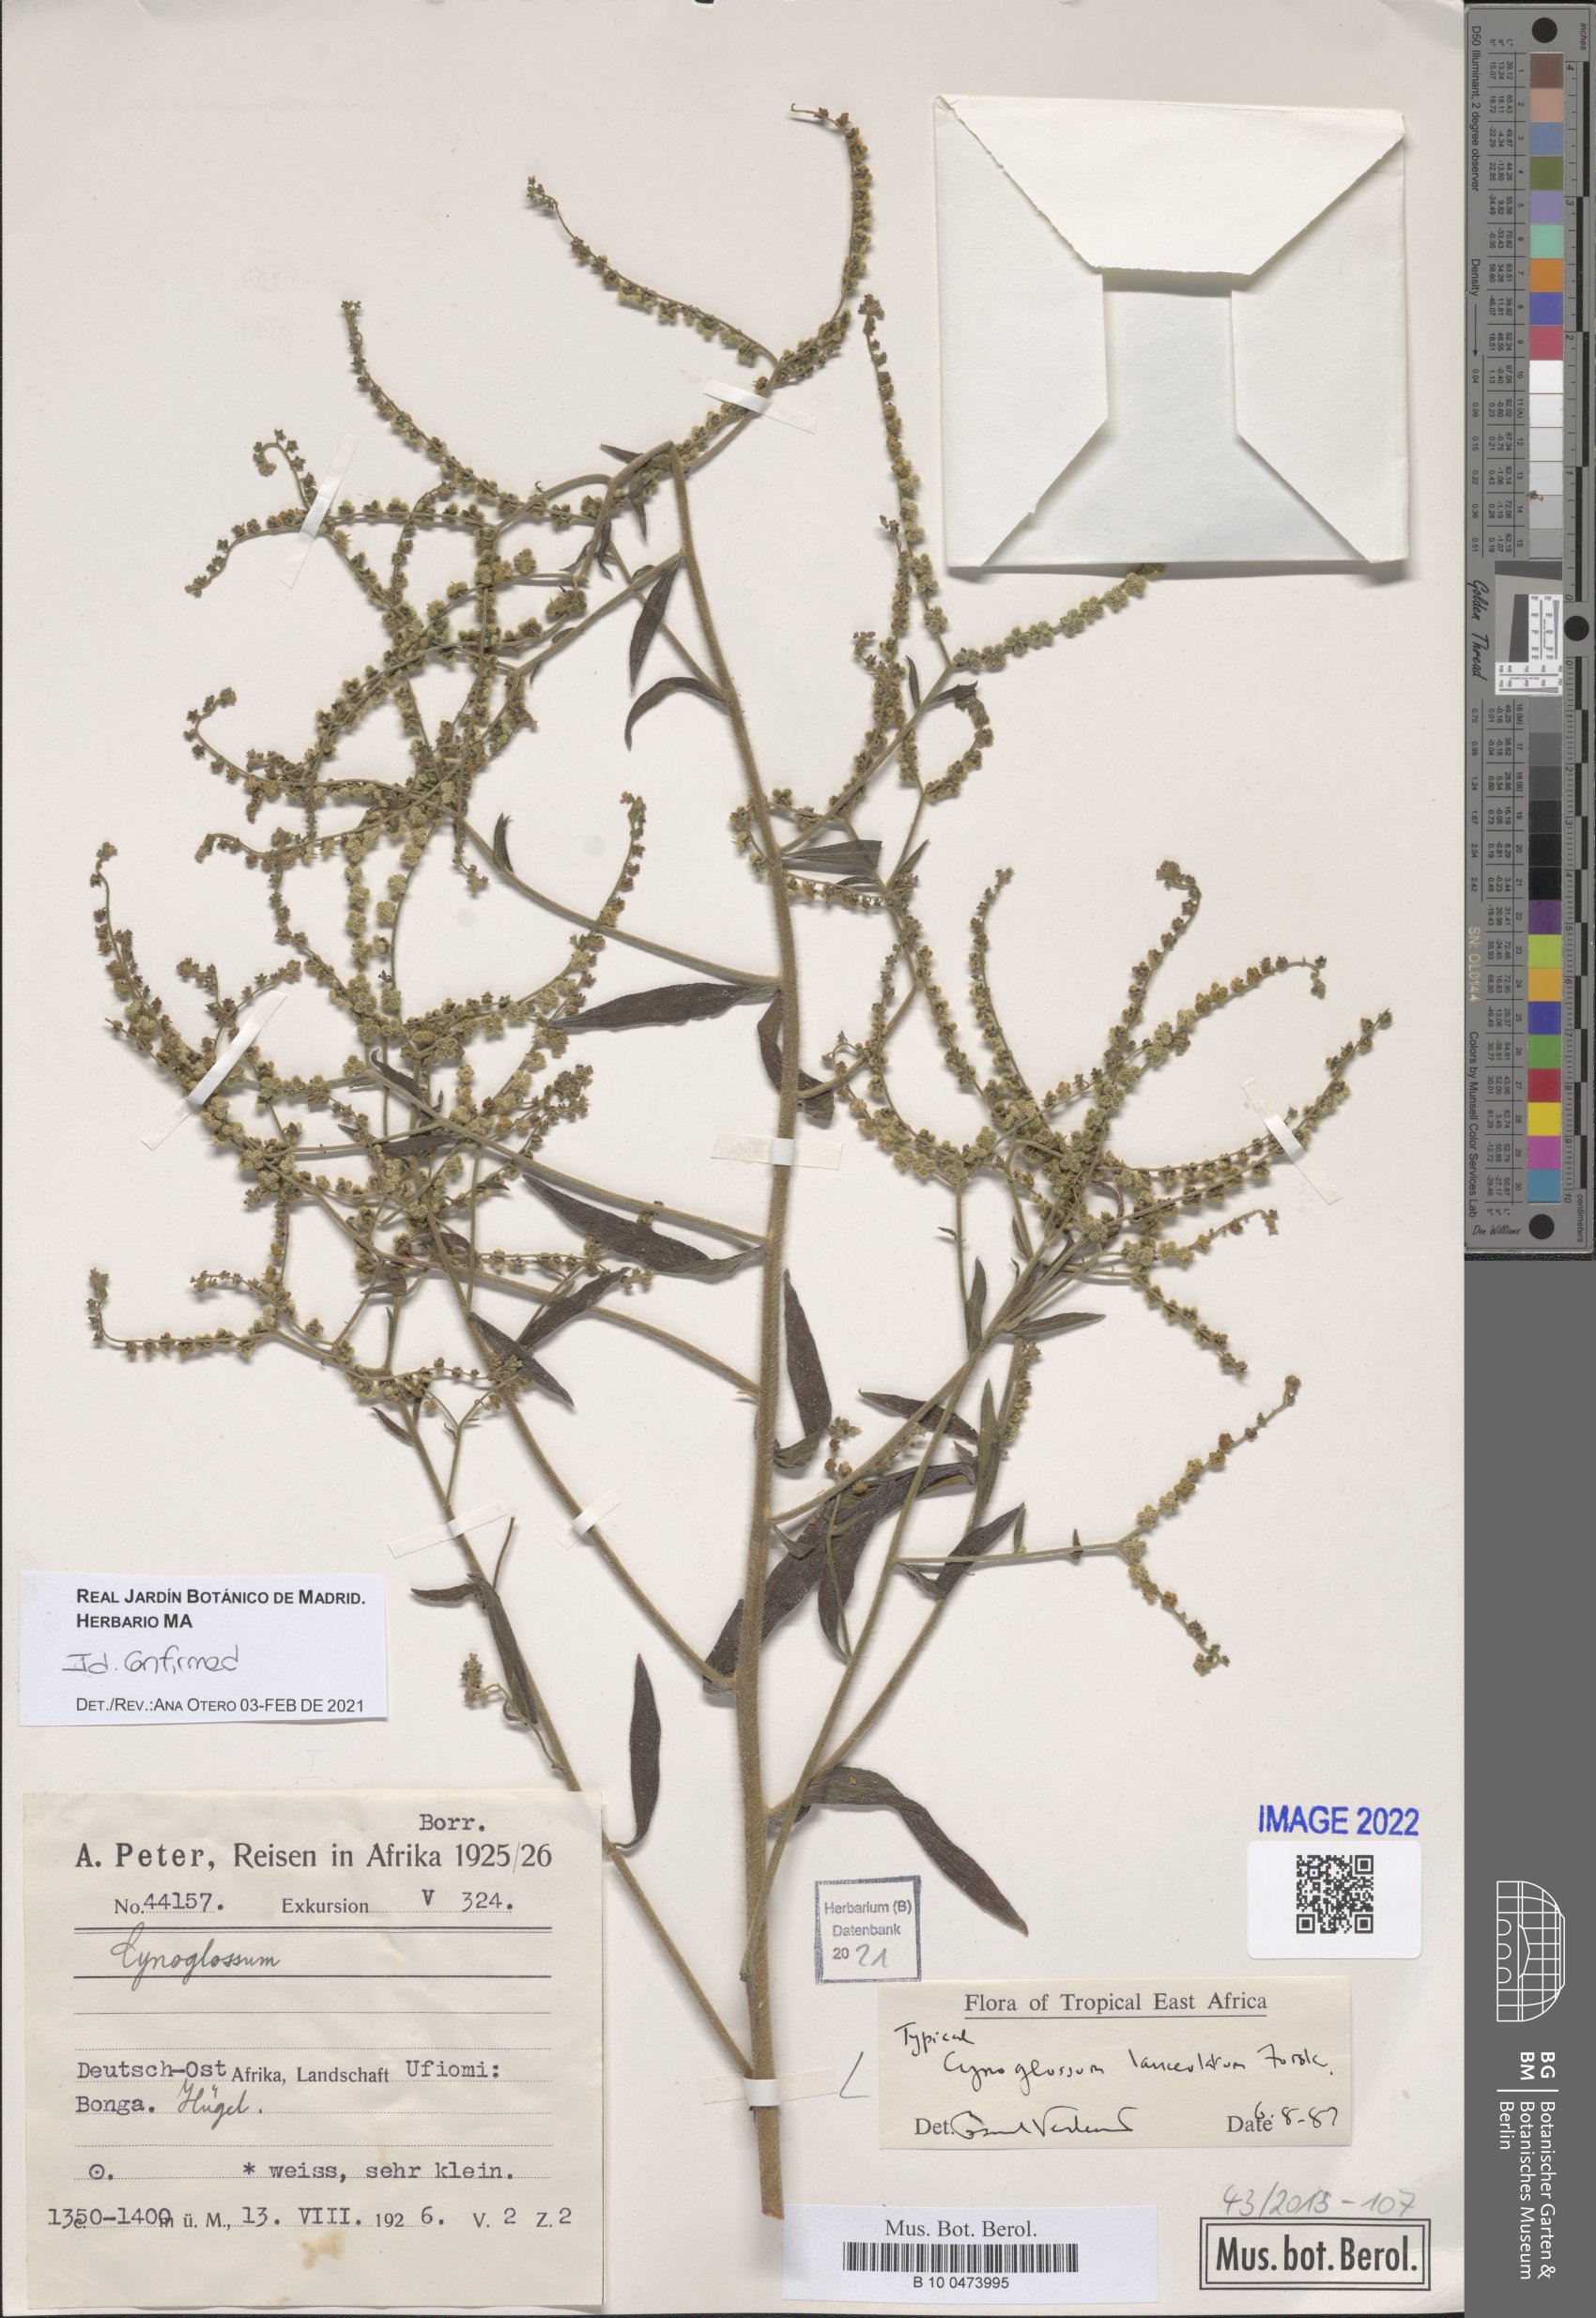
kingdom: Plantae
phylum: Tracheophyta
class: Magnoliopsida
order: Boraginales
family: Boraginaceae
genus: Paracynoglossum
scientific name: Paracynoglossum lanceolatum
